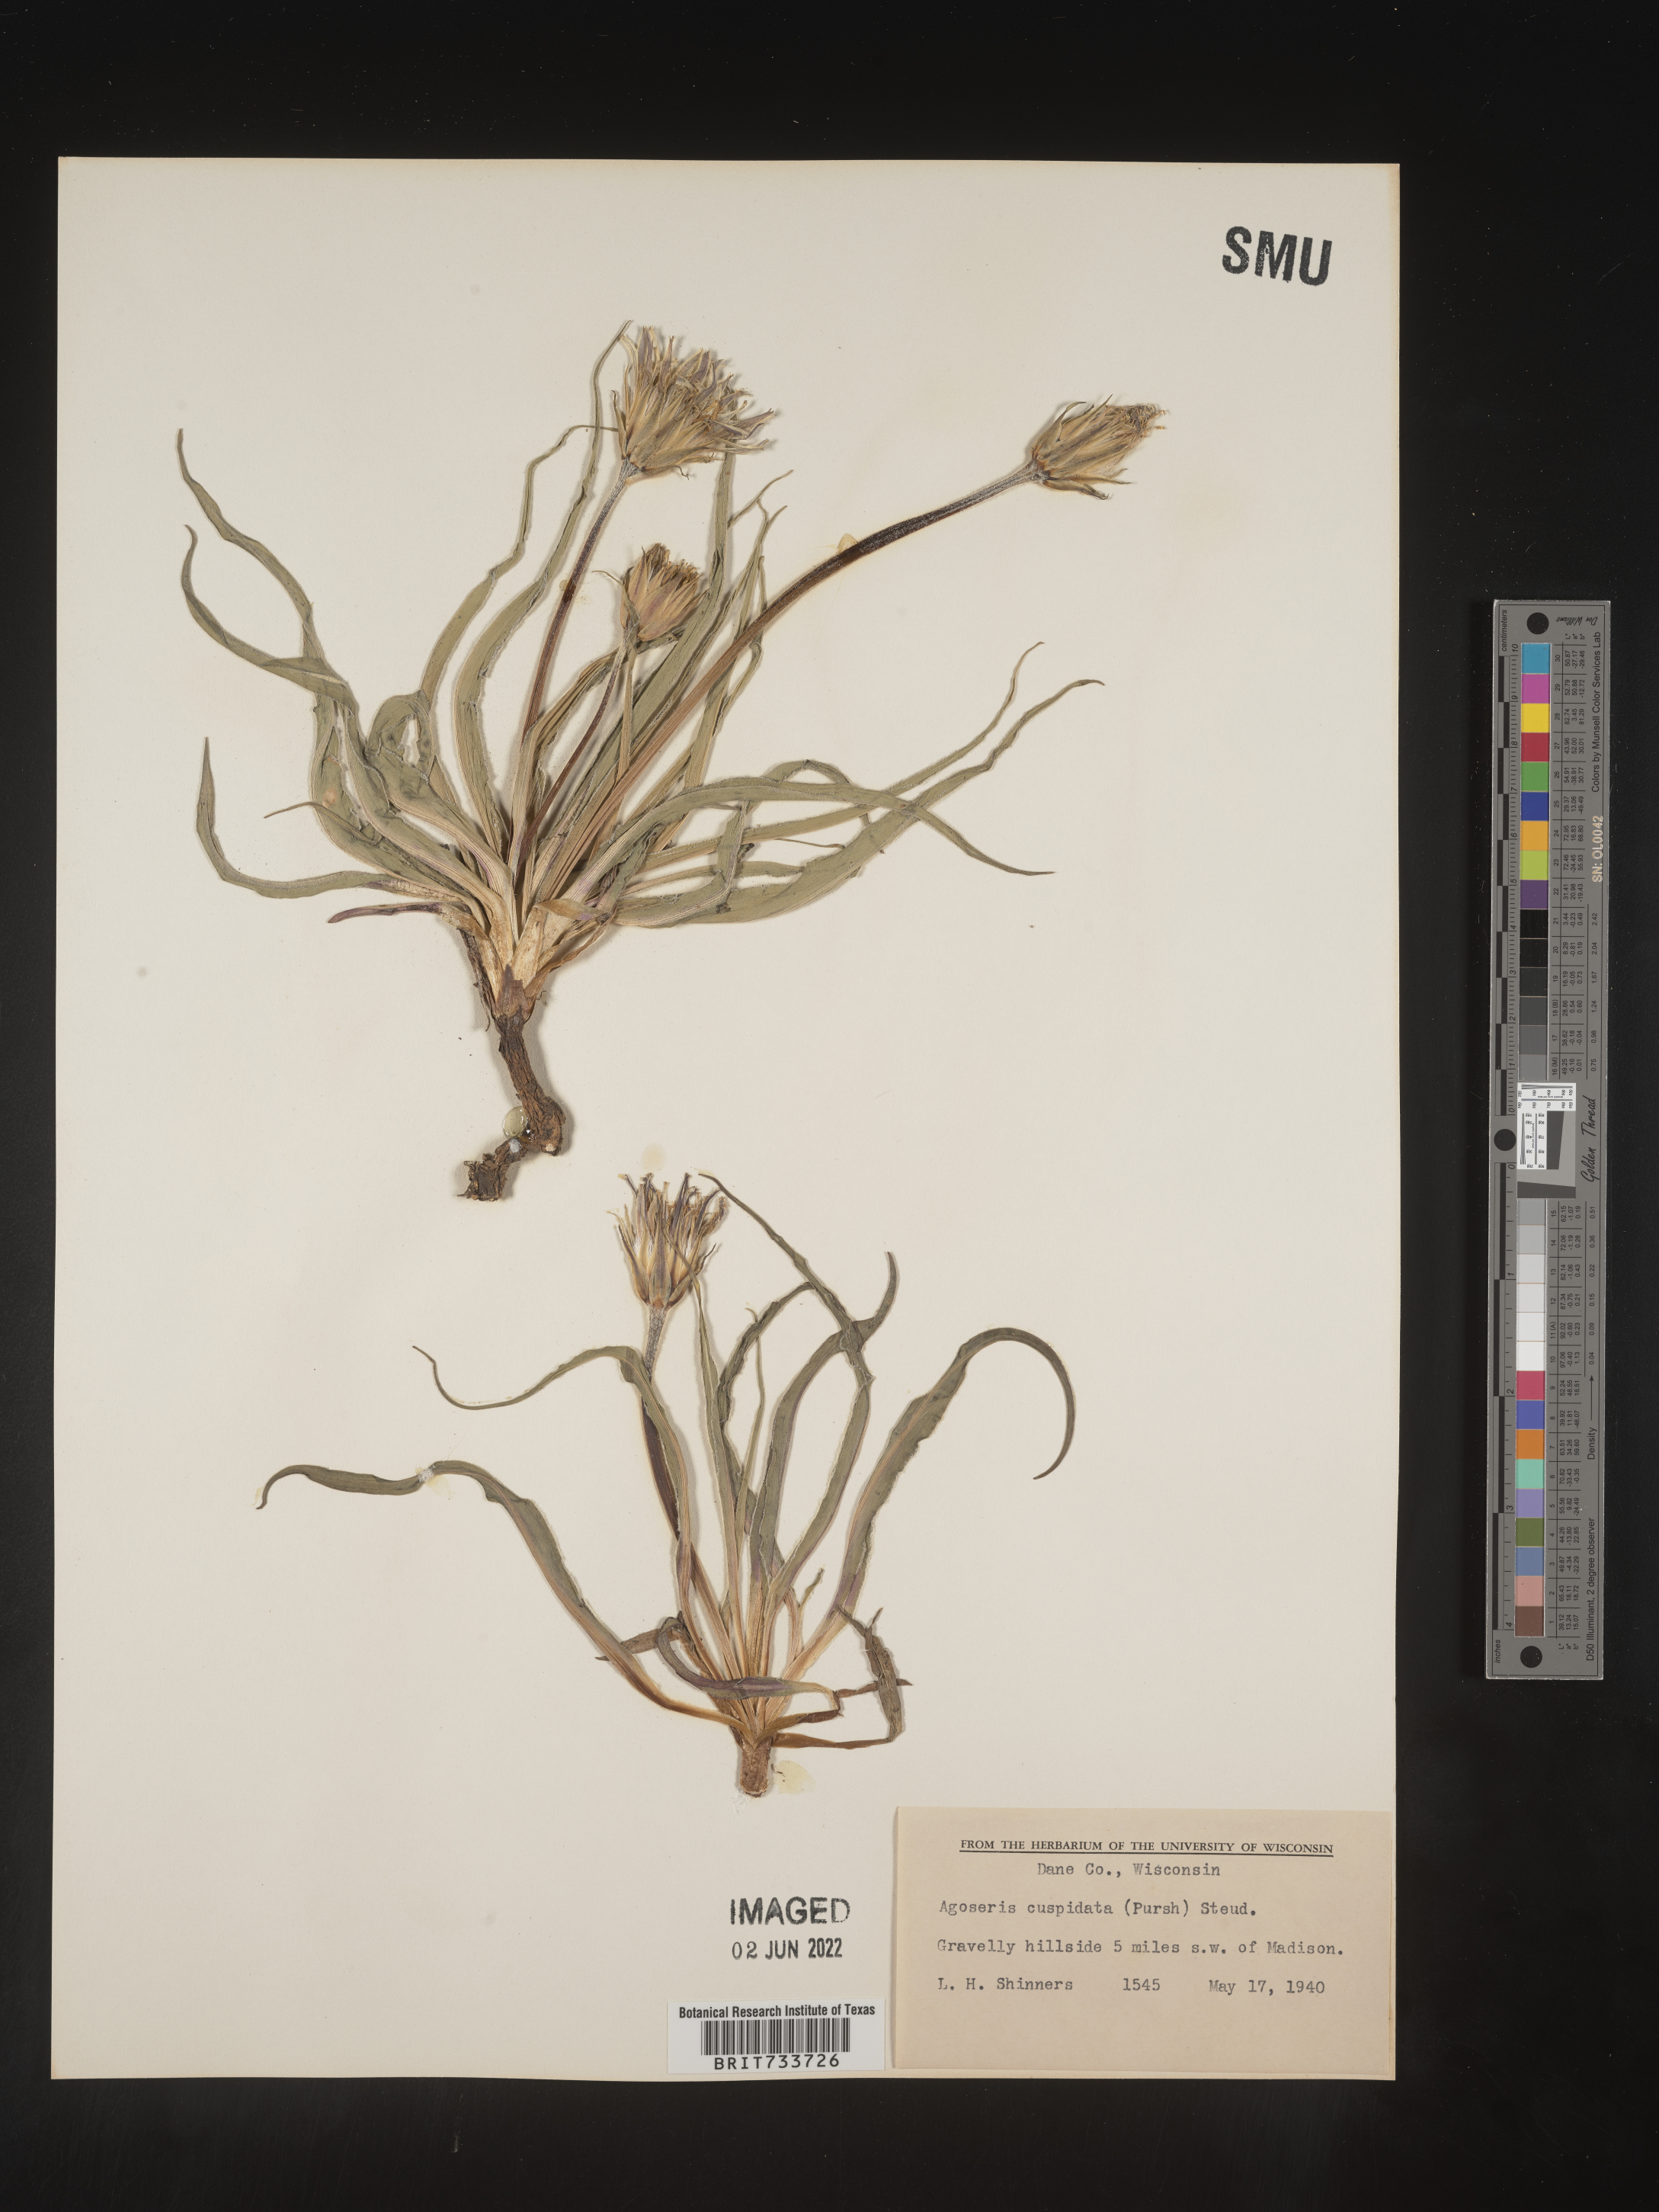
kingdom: Plantae
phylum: Tracheophyta
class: Magnoliopsida
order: Asterales
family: Asteraceae
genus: Microseris
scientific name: Microseris
